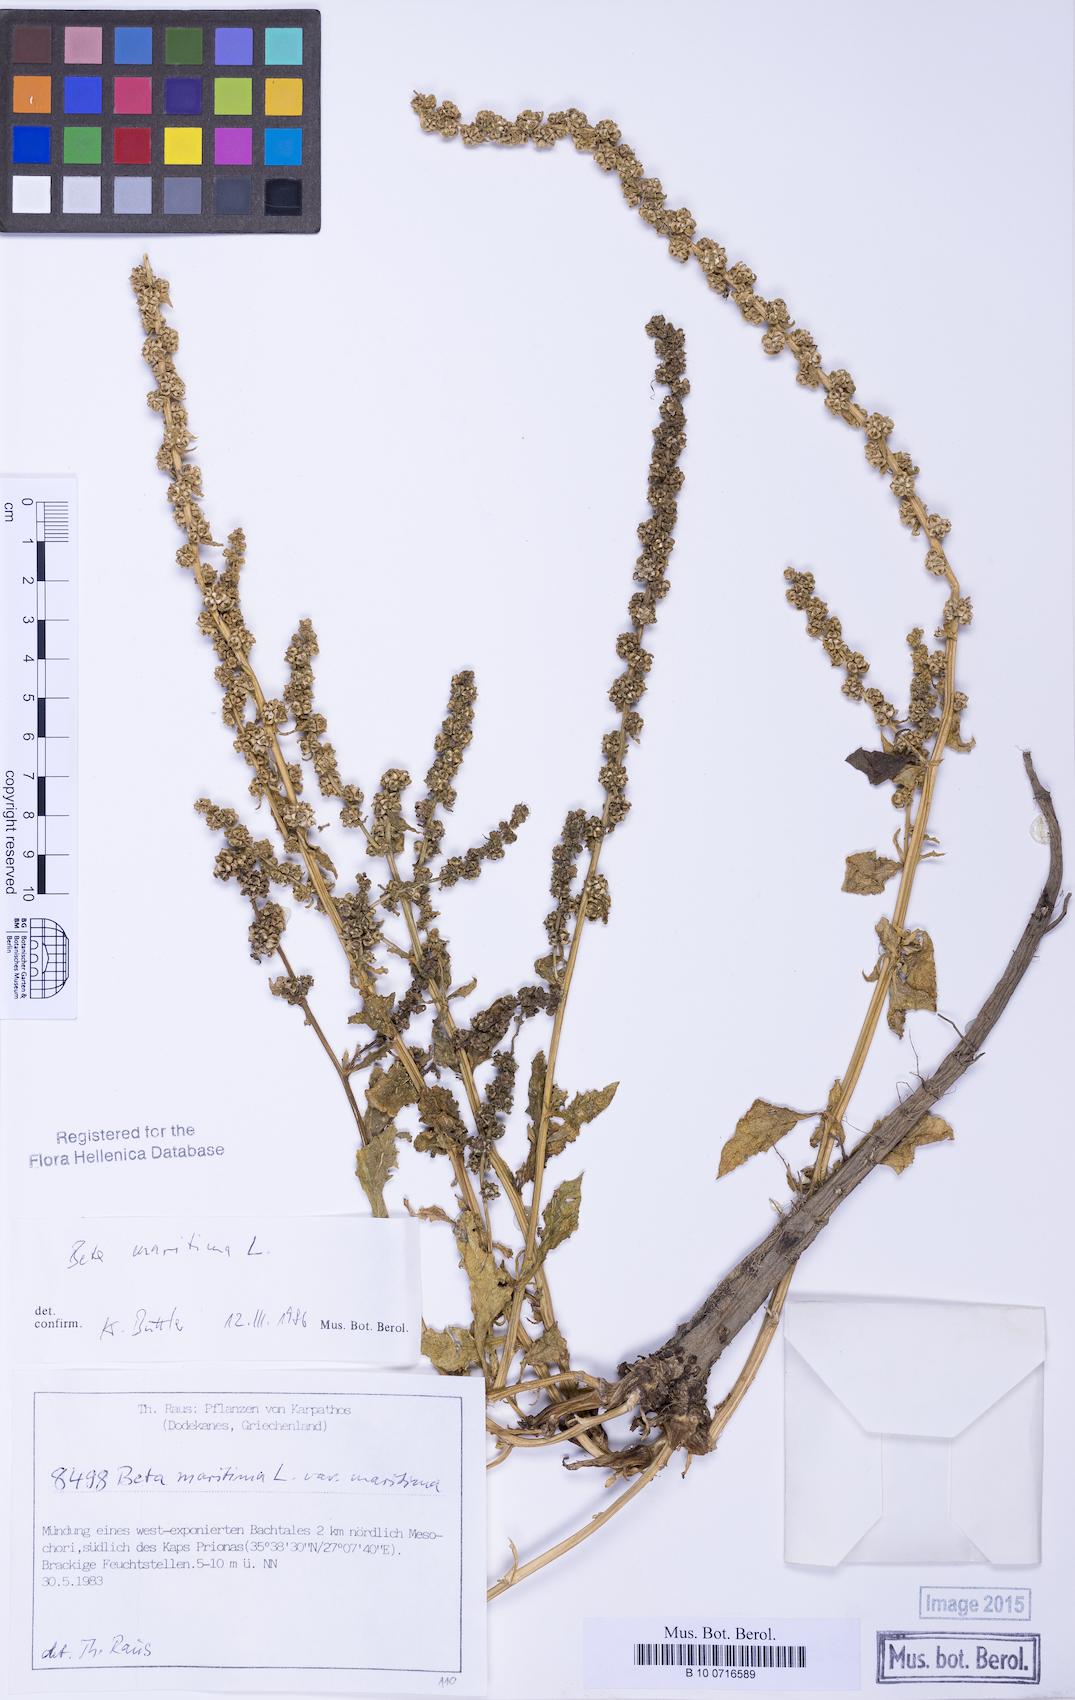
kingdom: Plantae
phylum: Tracheophyta
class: Magnoliopsida
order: Caryophyllales
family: Amaranthaceae
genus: Beta
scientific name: Beta maritima
